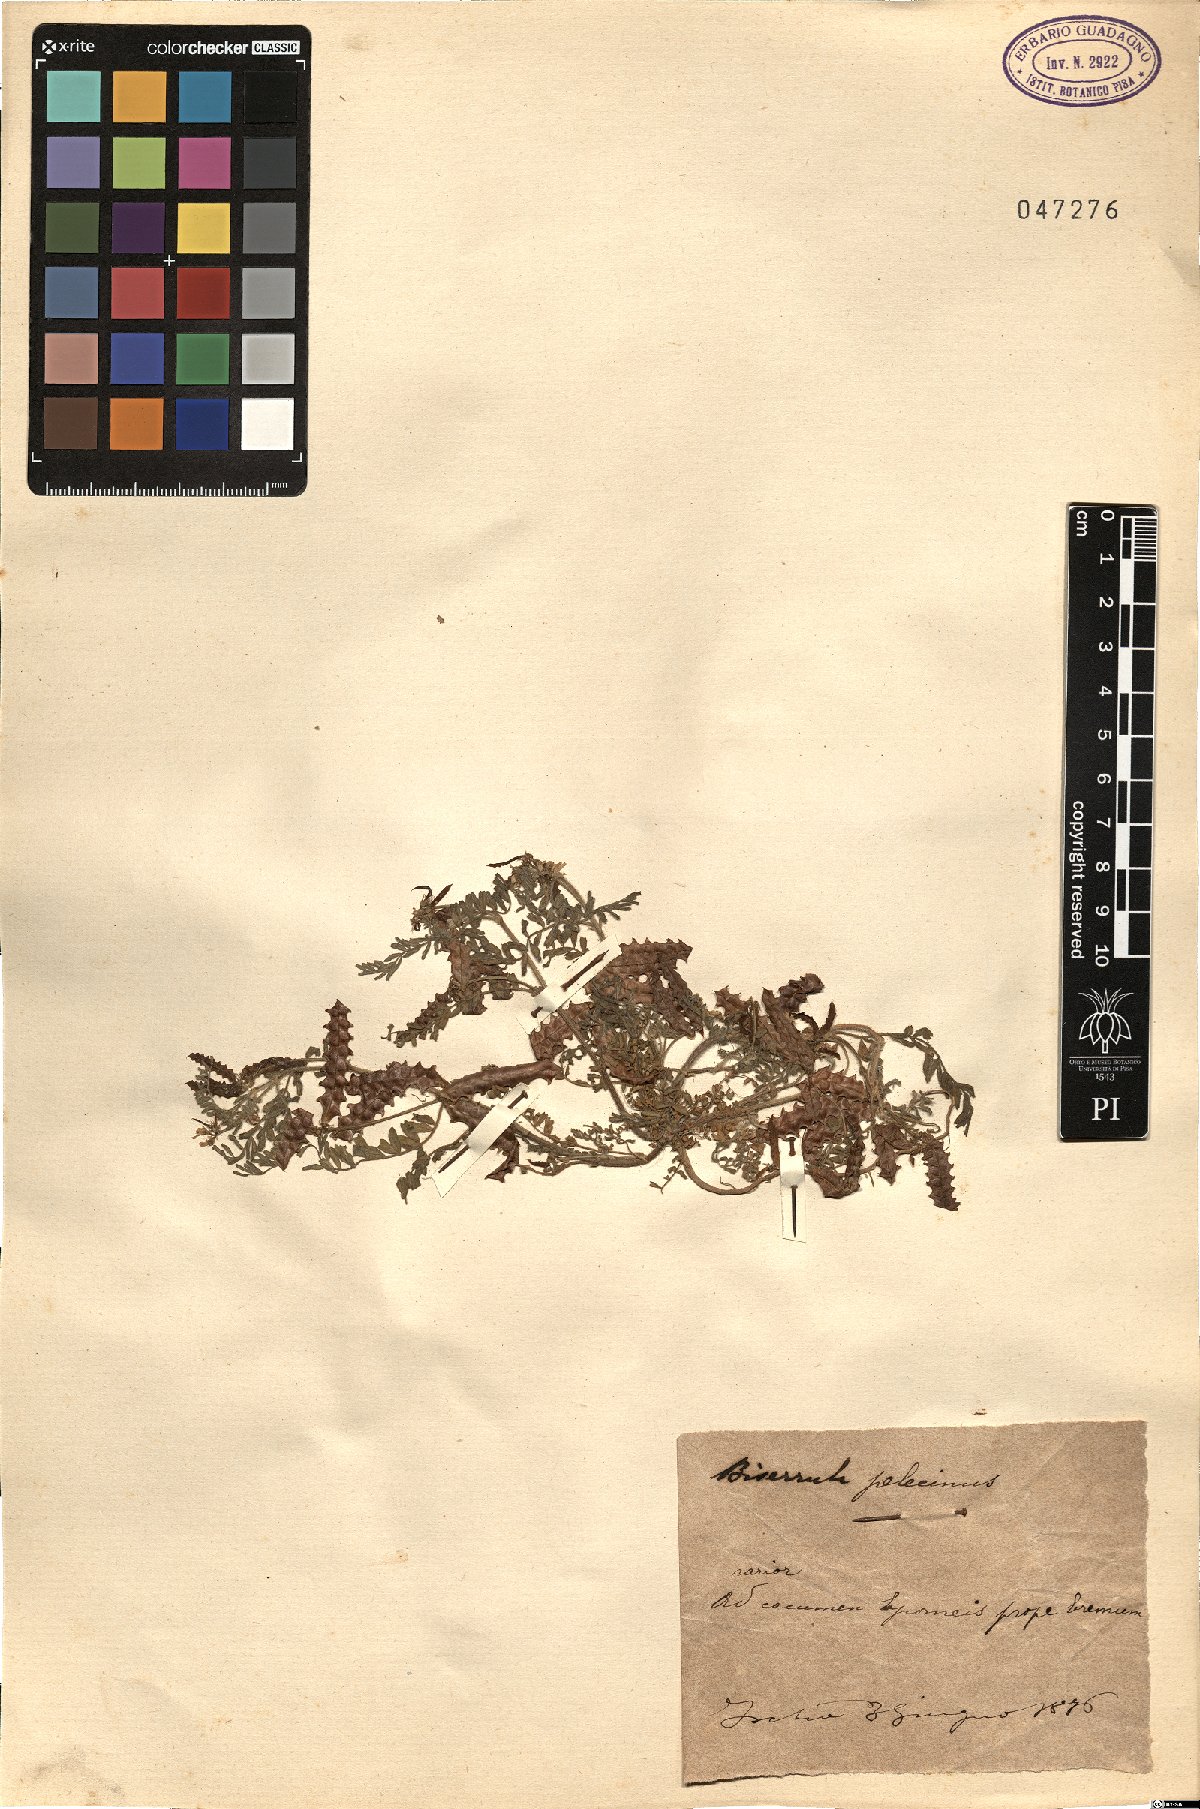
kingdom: Plantae
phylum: Tracheophyta
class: Magnoliopsida
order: Fabales
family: Fabaceae
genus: Biserrula
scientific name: Biserrula pelecinus
